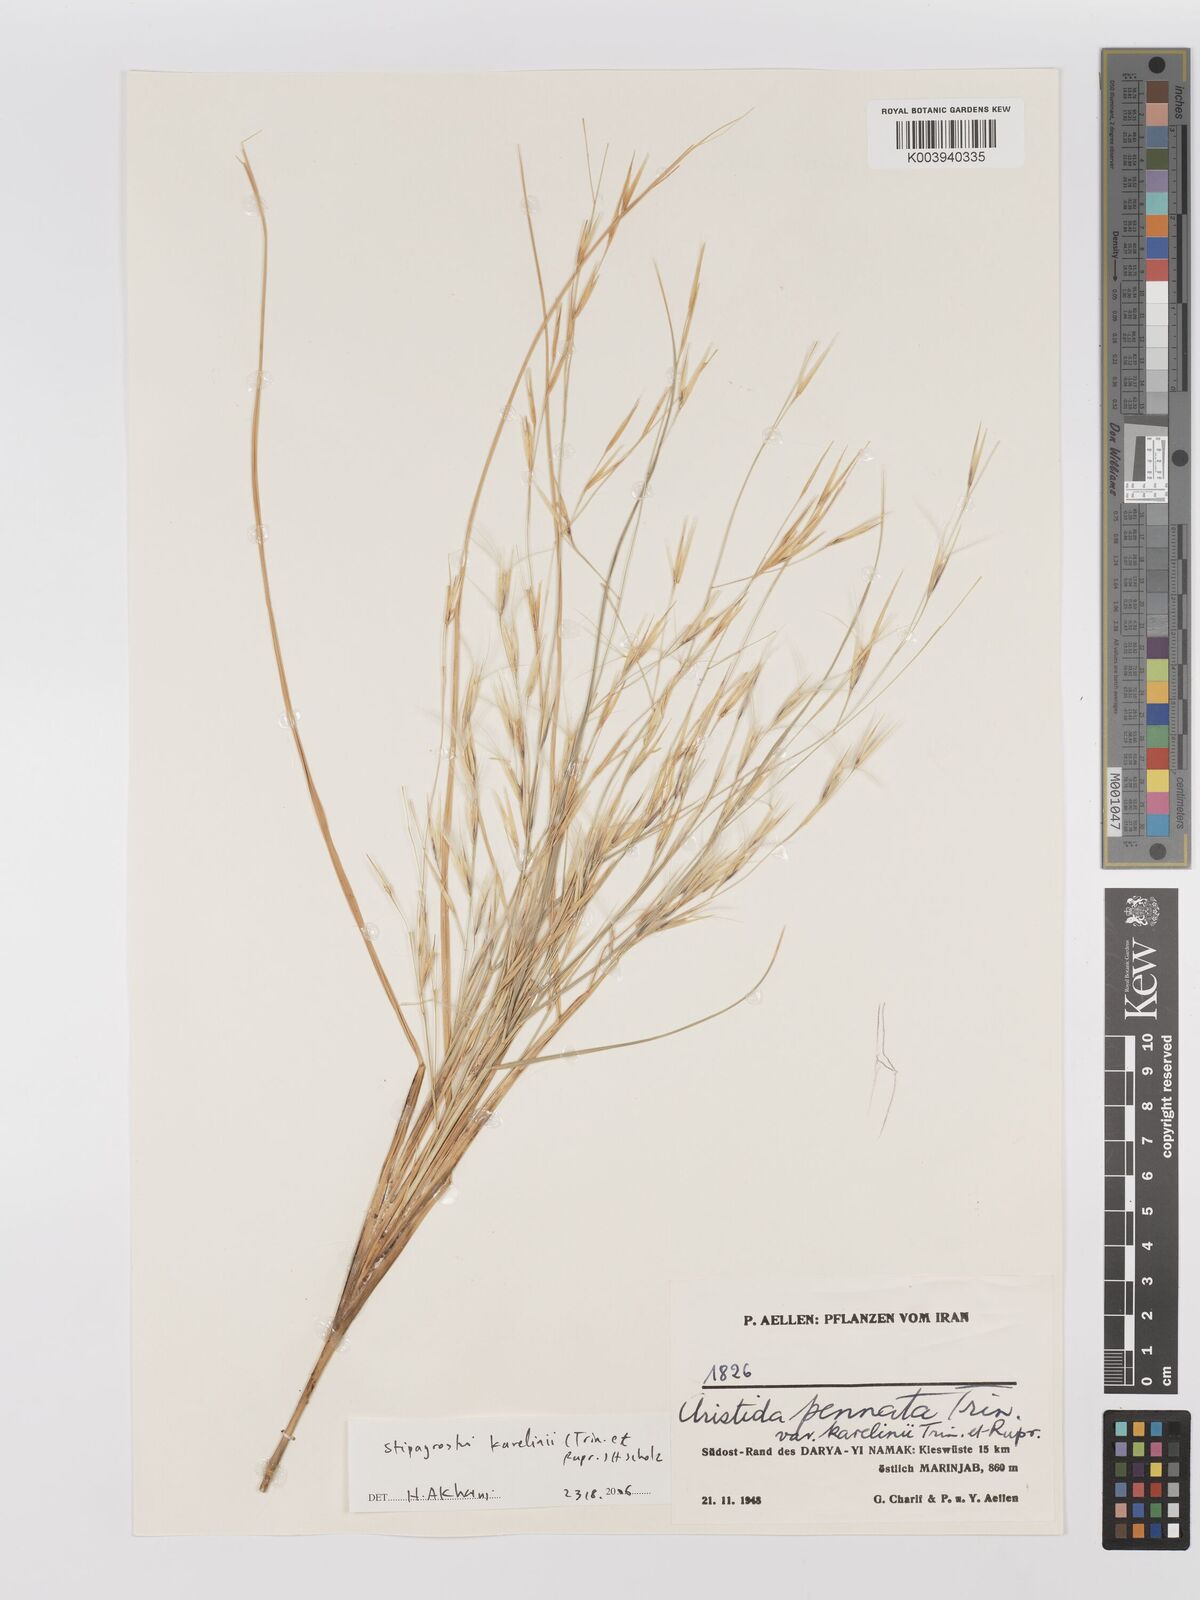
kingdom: Plantae
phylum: Tracheophyta
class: Liliopsida
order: Poales
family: Poaceae
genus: Stipagrostis
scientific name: Stipagrostis karelinii
